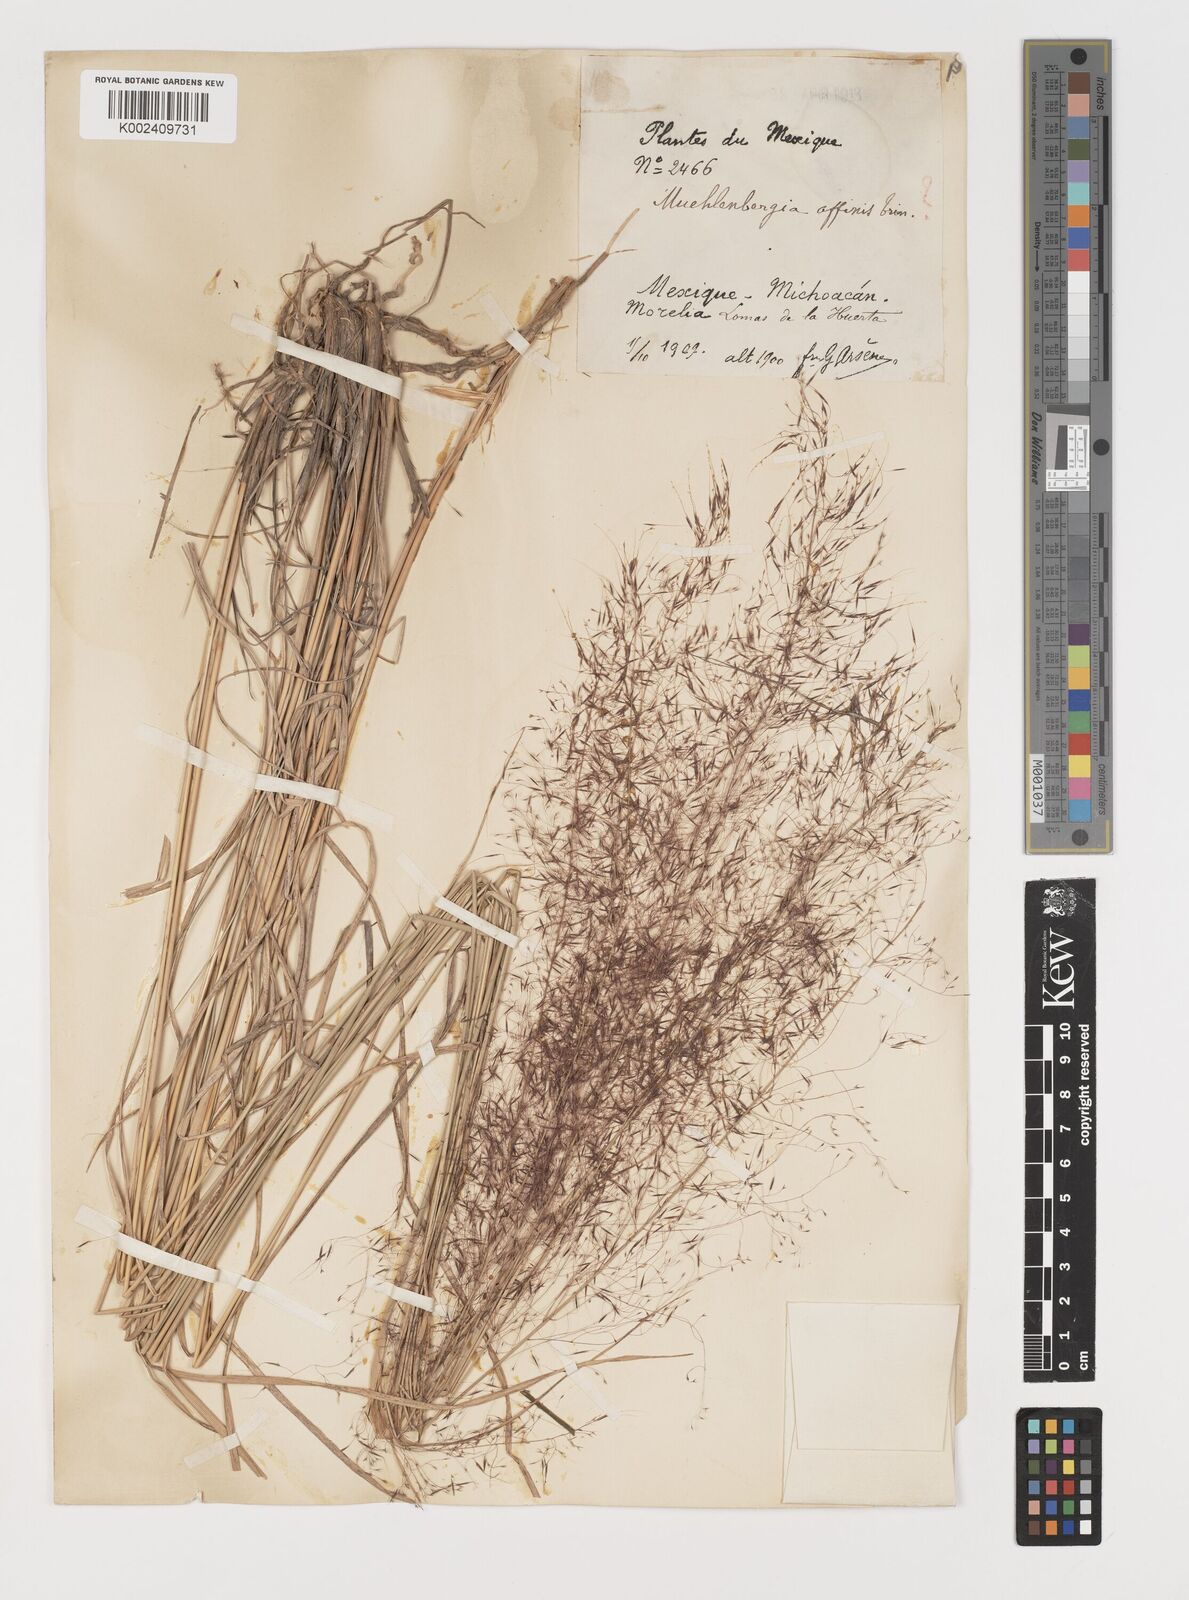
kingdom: Plantae
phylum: Tracheophyta
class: Liliopsida
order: Poales
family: Poaceae
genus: Muhlenbergia
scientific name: Muhlenbergia rigida
